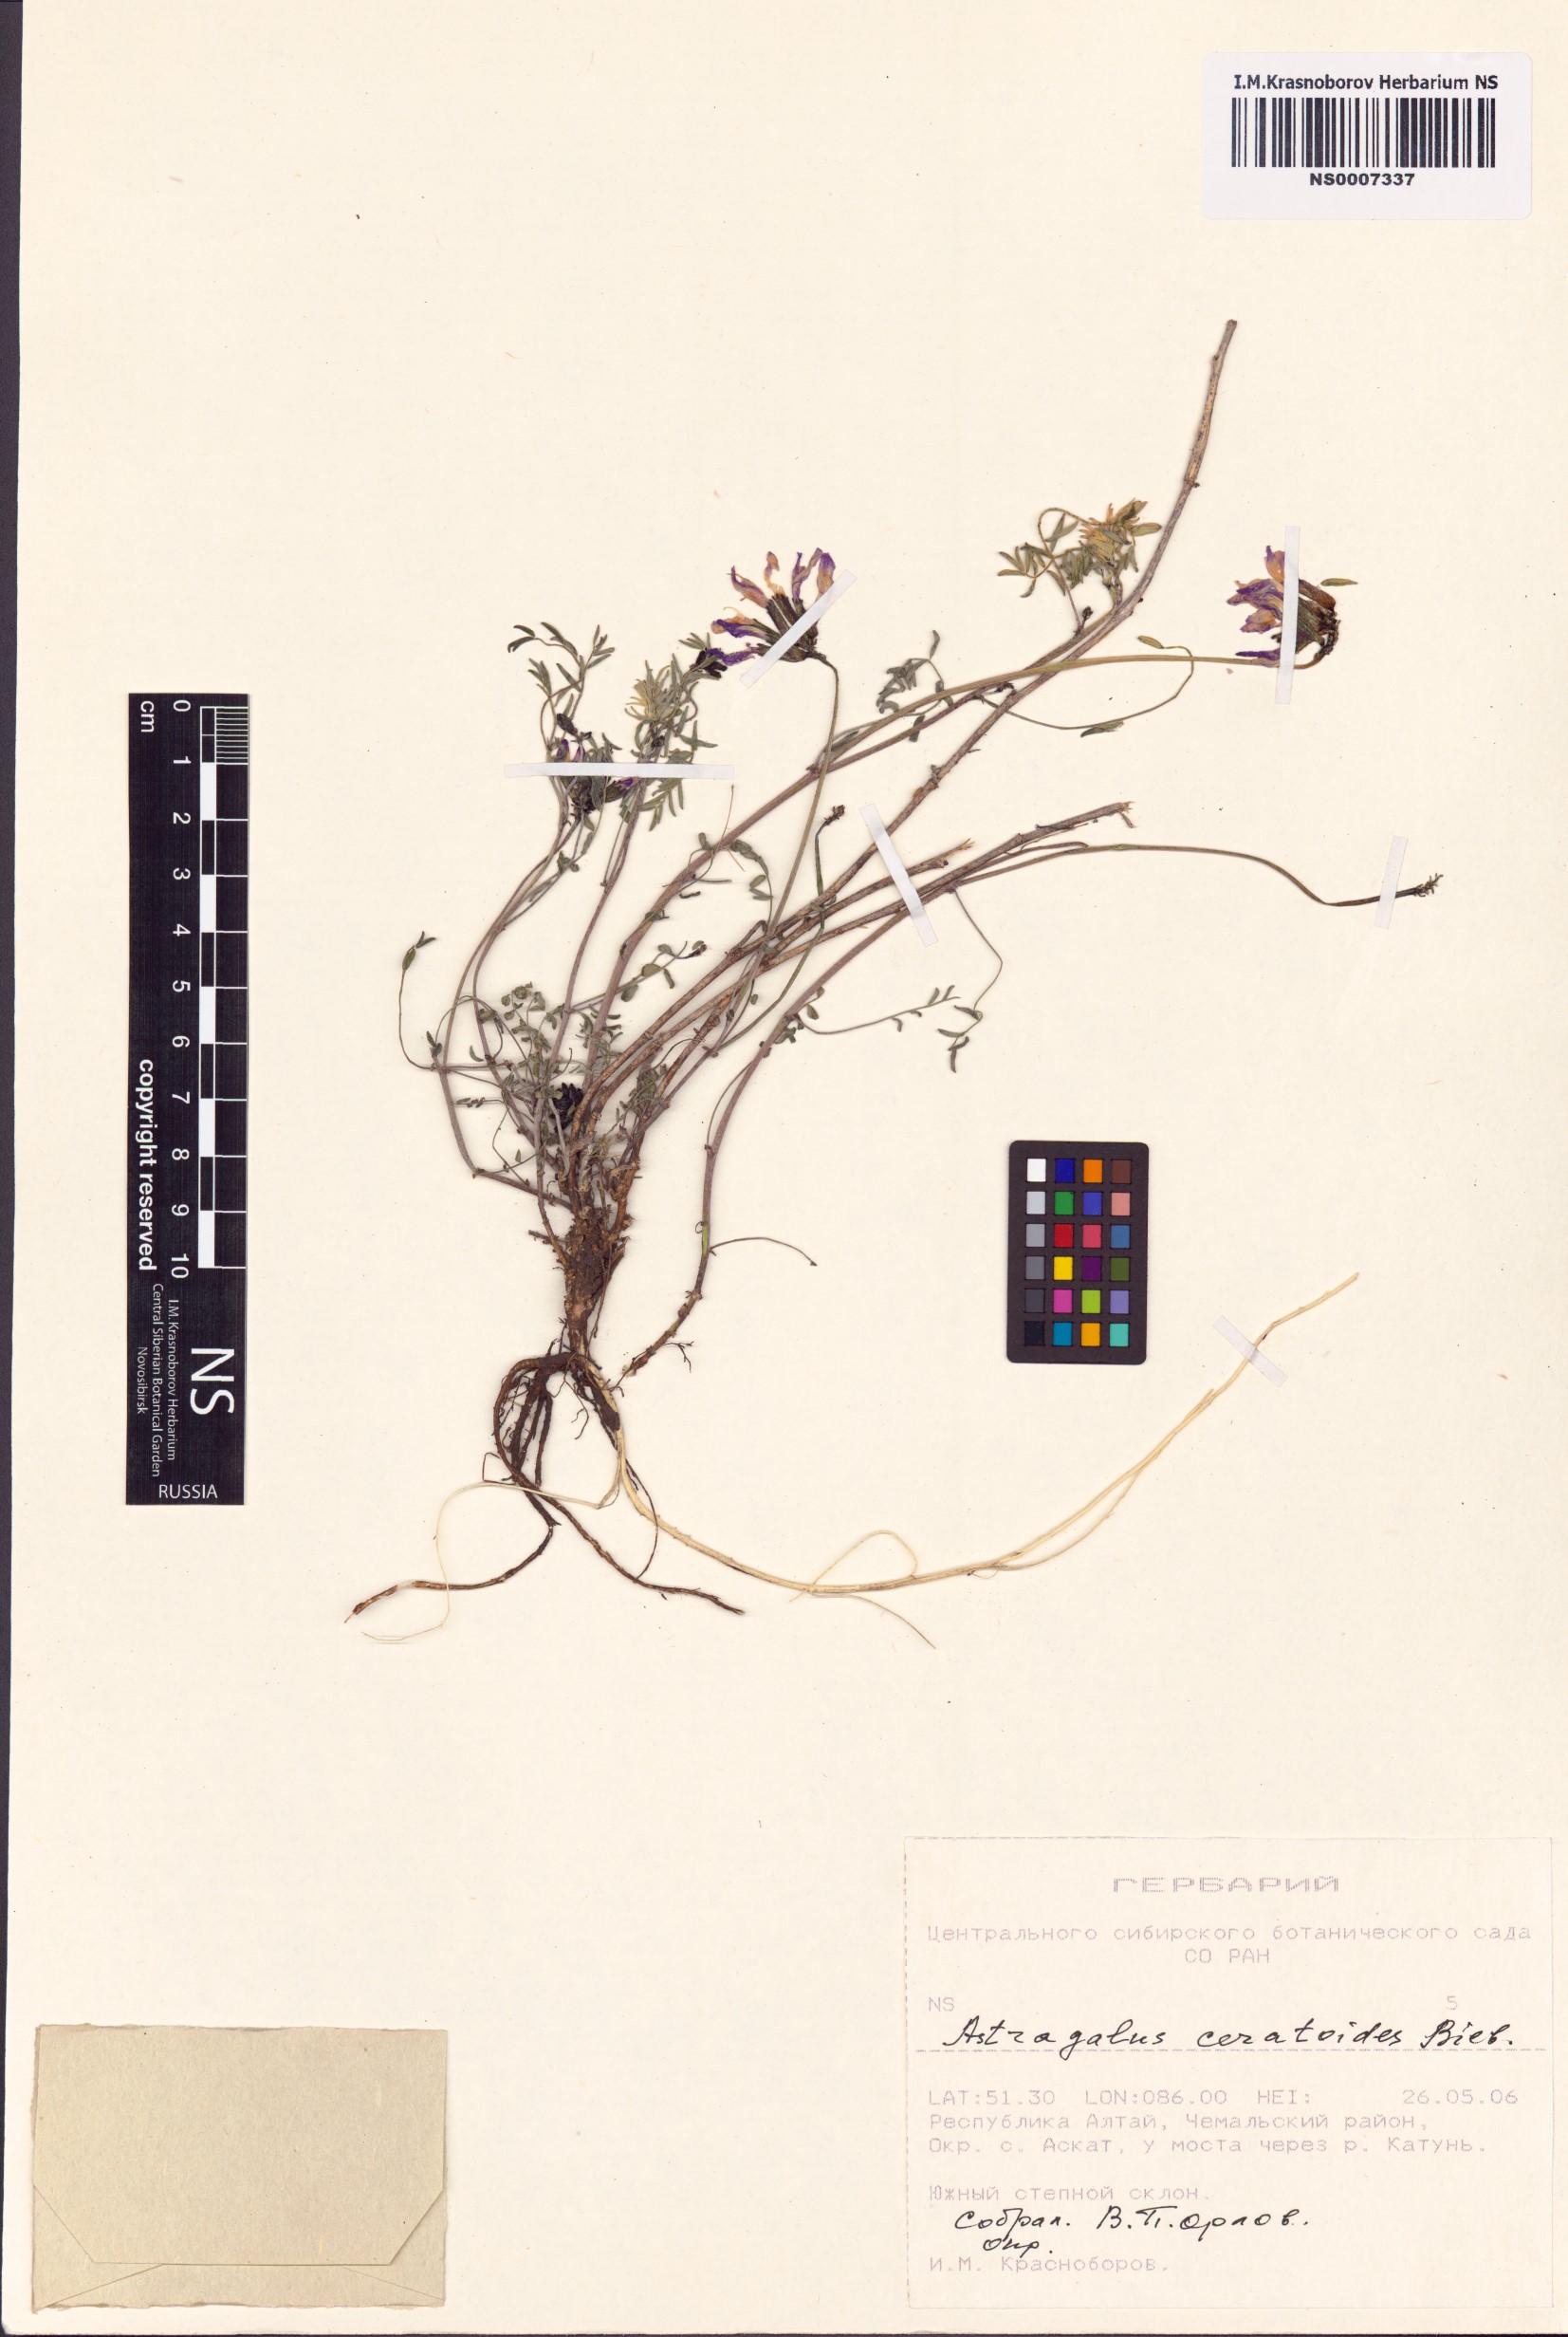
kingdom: Plantae
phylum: Tracheophyta
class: Magnoliopsida
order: Fabales
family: Fabaceae
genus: Astragalus
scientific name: Astragalus ceratoides
